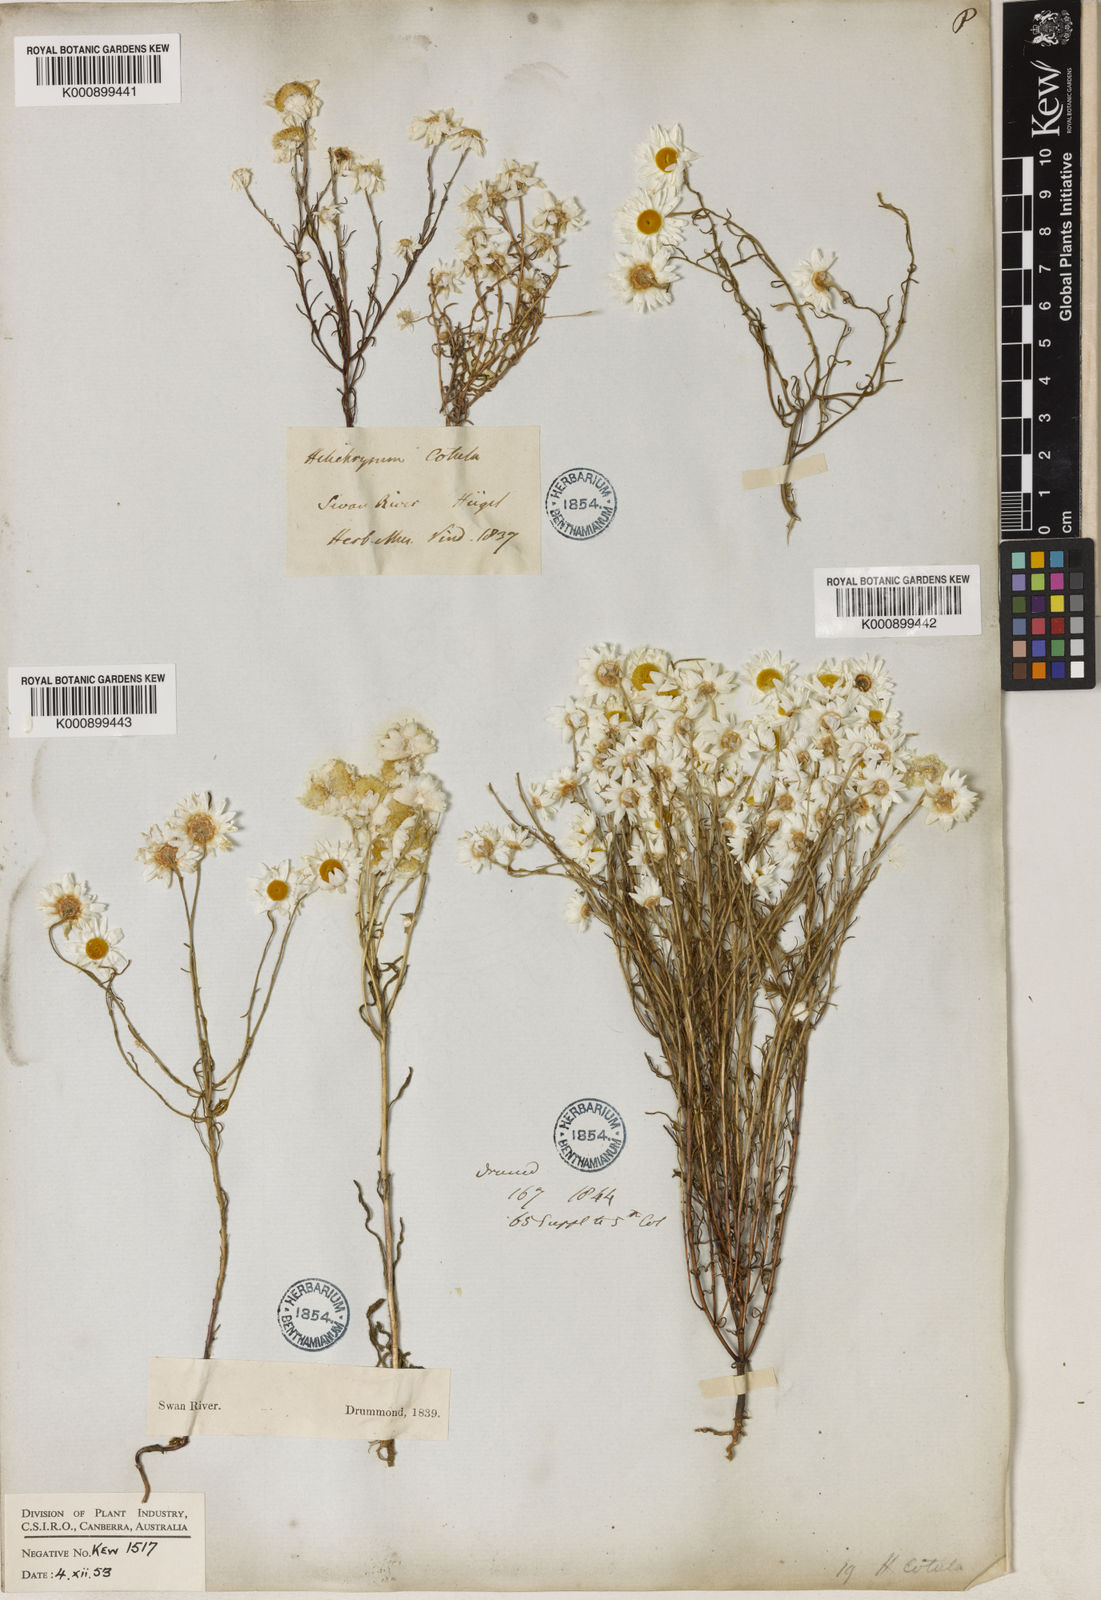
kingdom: Plantae
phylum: Tracheophyta
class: Magnoliopsida
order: Asterales
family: Asteraceae
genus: Hyalosperma
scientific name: Hyalosperma cotula
